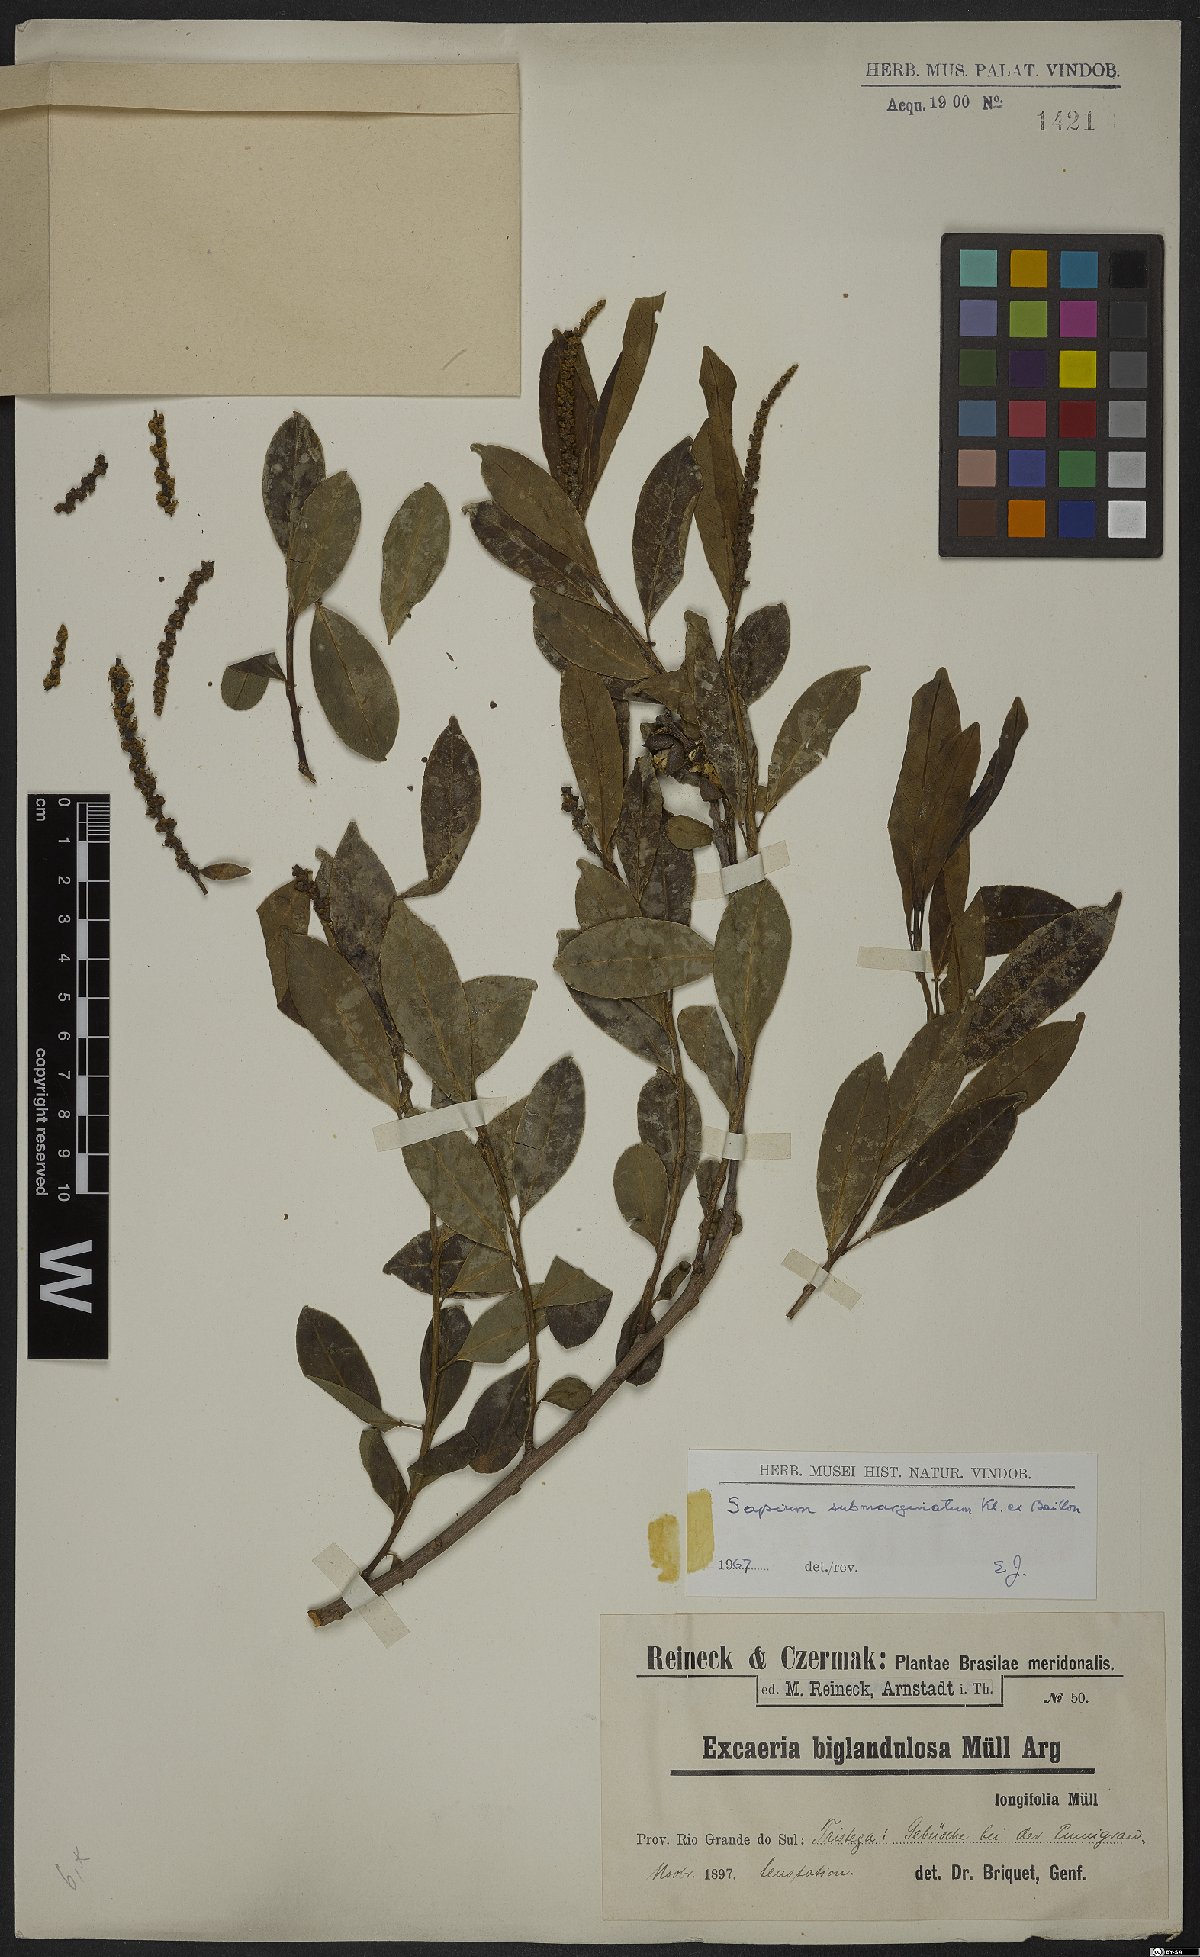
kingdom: Plantae
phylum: Tracheophyta
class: Magnoliopsida
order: Malpighiales
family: Euphorbiaceae
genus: Sapium
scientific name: Sapium glandulosum
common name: Milktree
